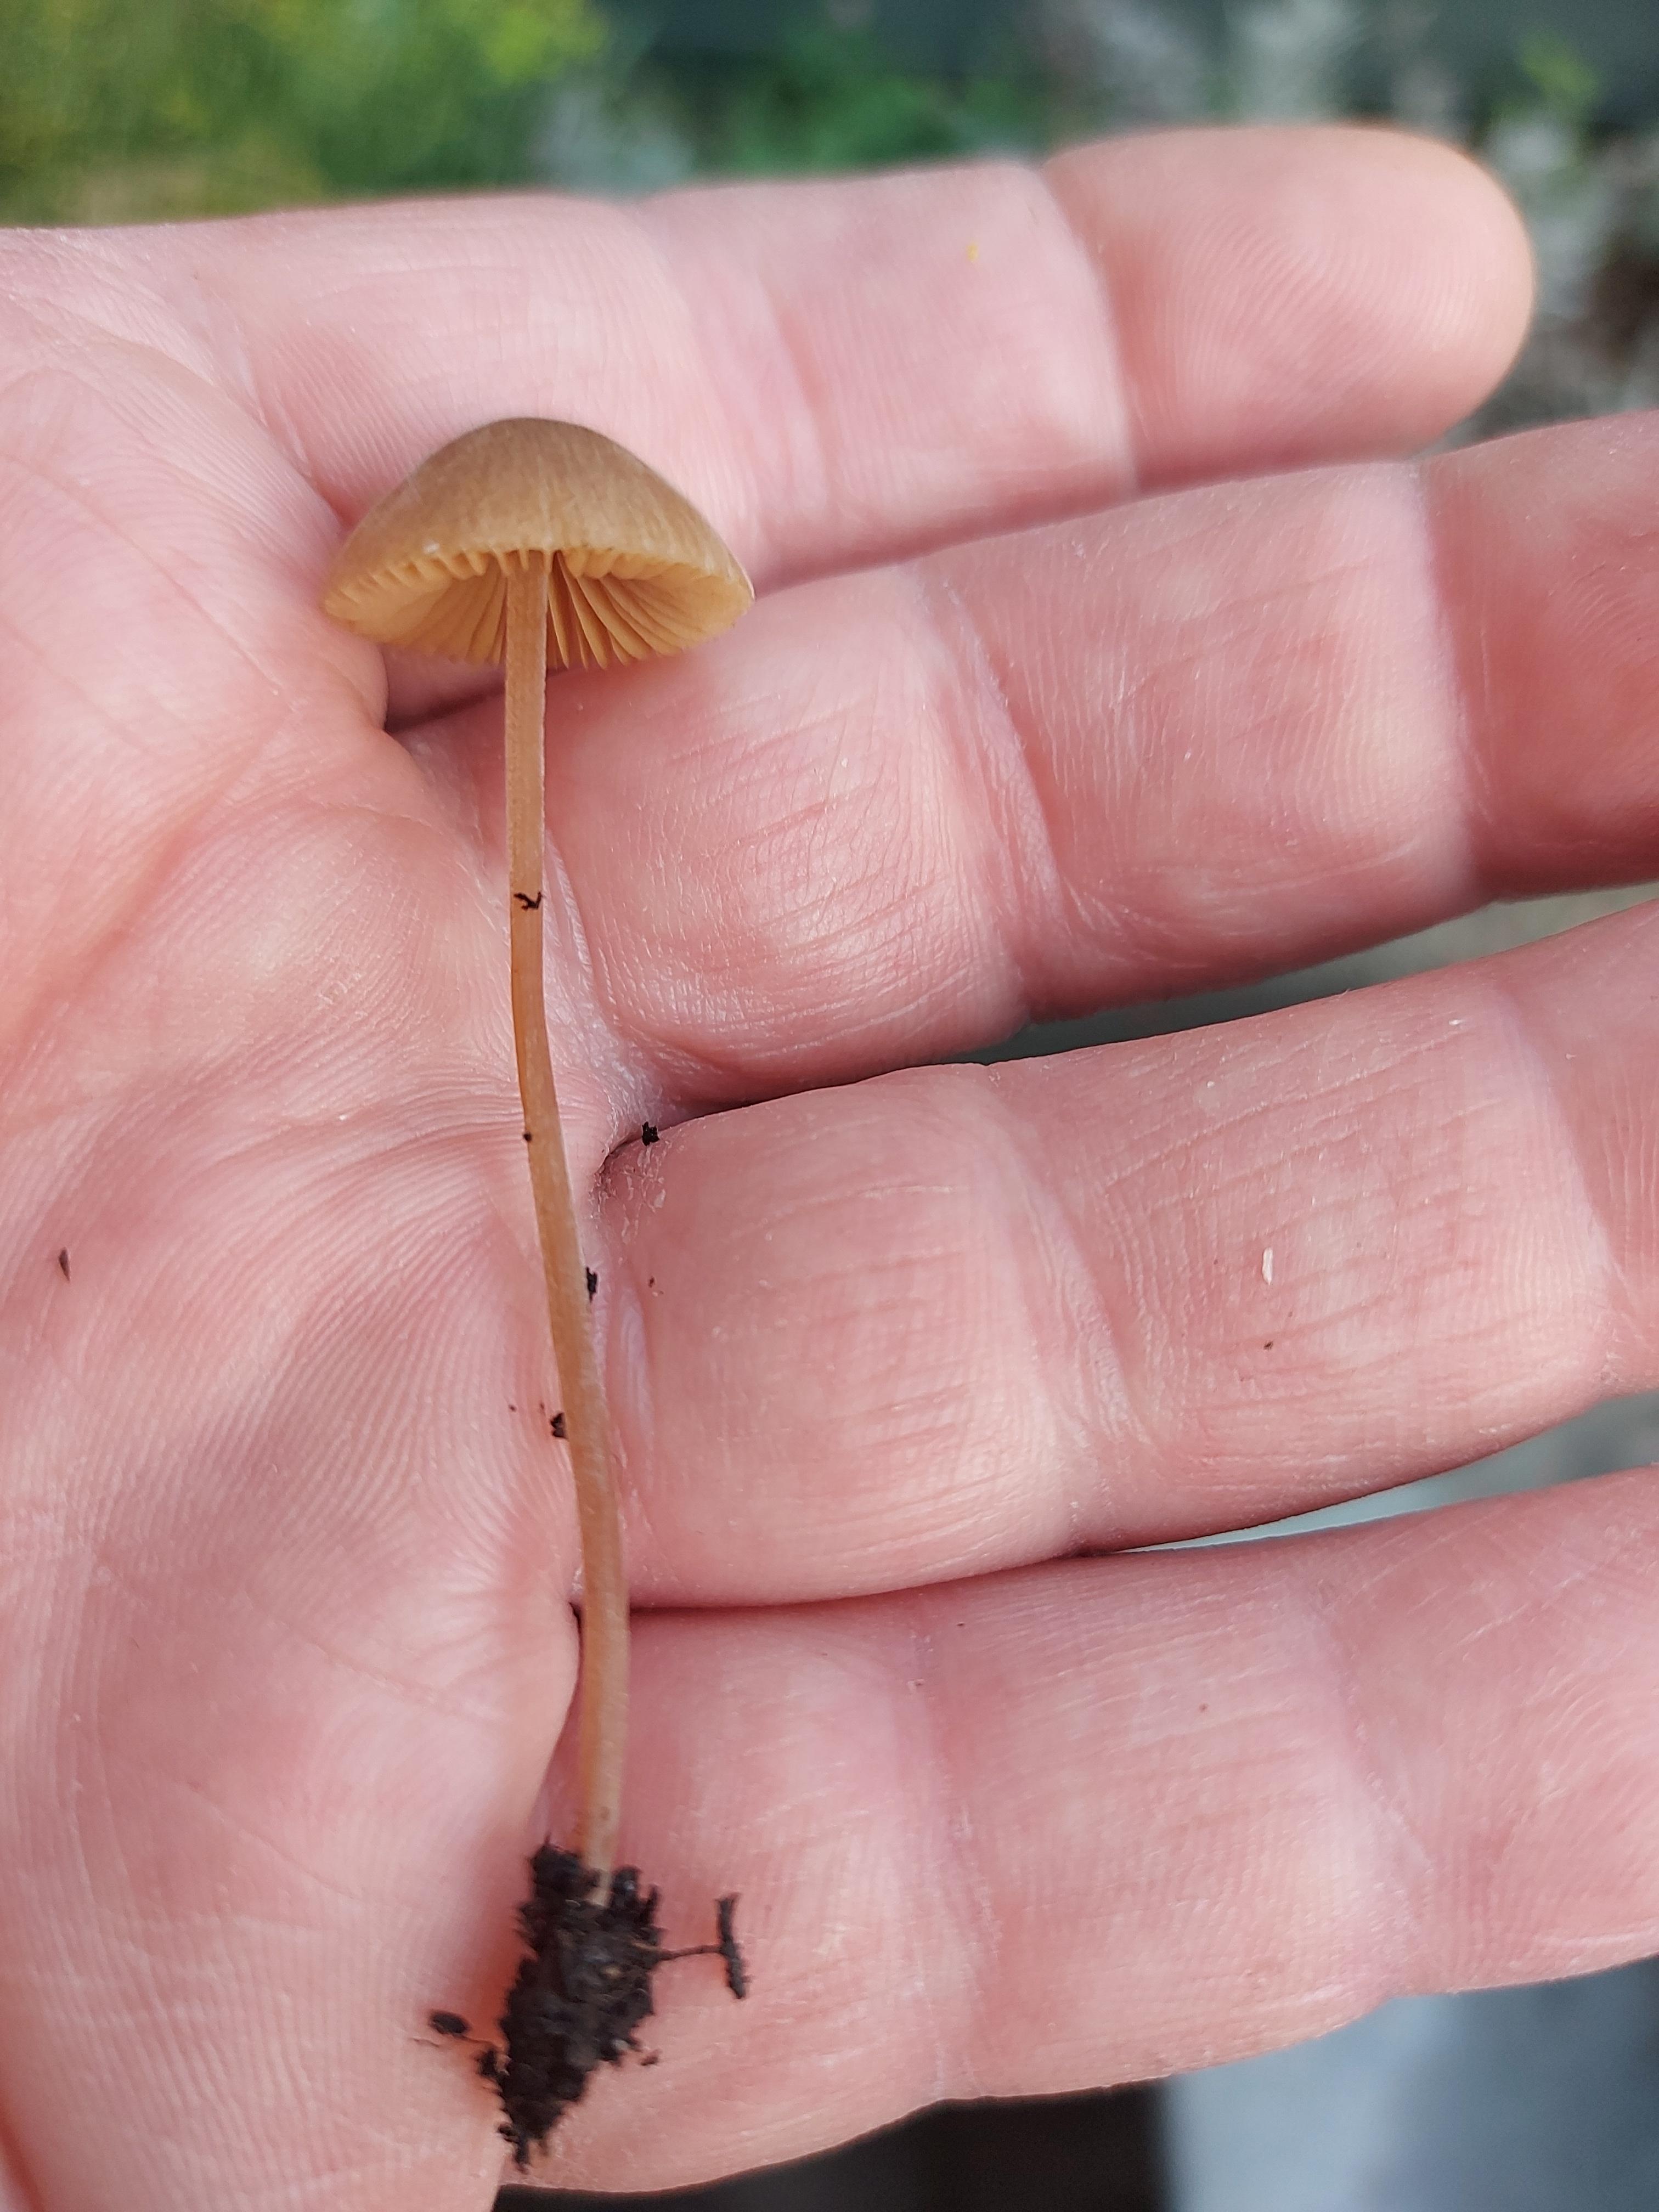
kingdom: Fungi
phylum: Basidiomycota
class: Agaricomycetes
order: Agaricales
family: Bolbitiaceae
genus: Conocybe
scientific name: Conocybe
